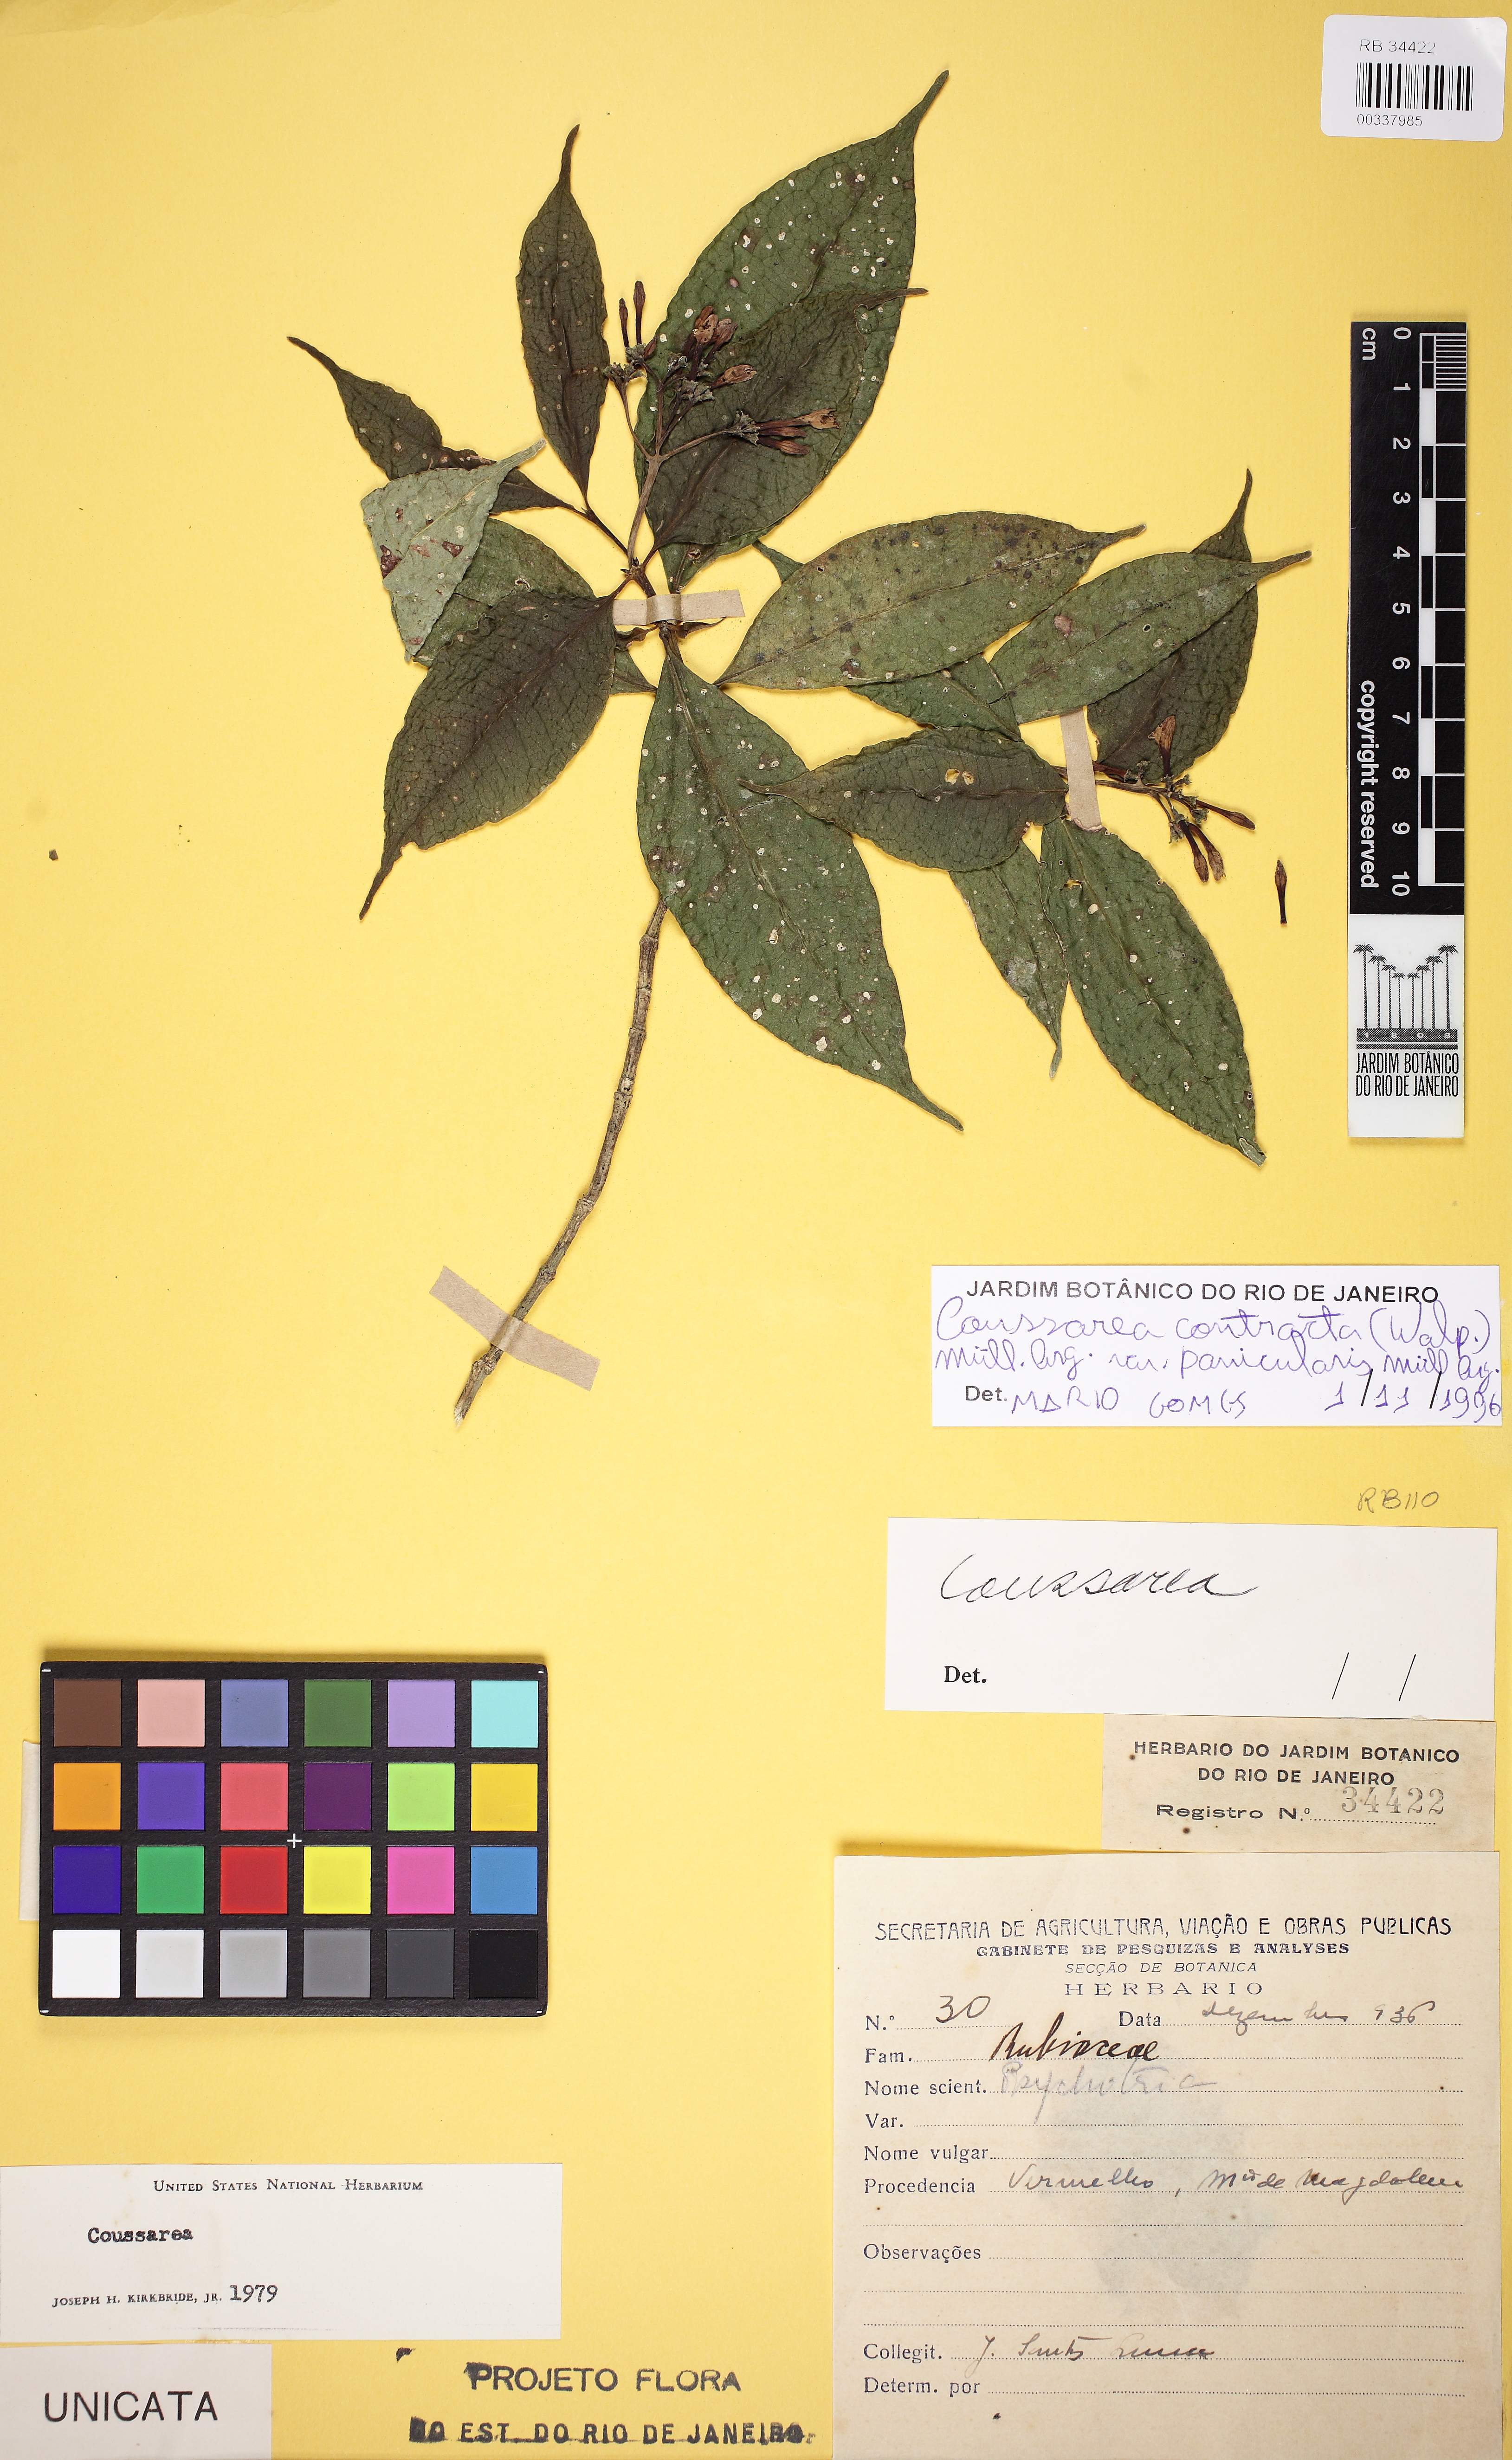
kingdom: Plantae
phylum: Tracheophyta
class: Magnoliopsida
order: Gentianales
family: Rubiaceae
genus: Coussarea
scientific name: Coussarea contracta
